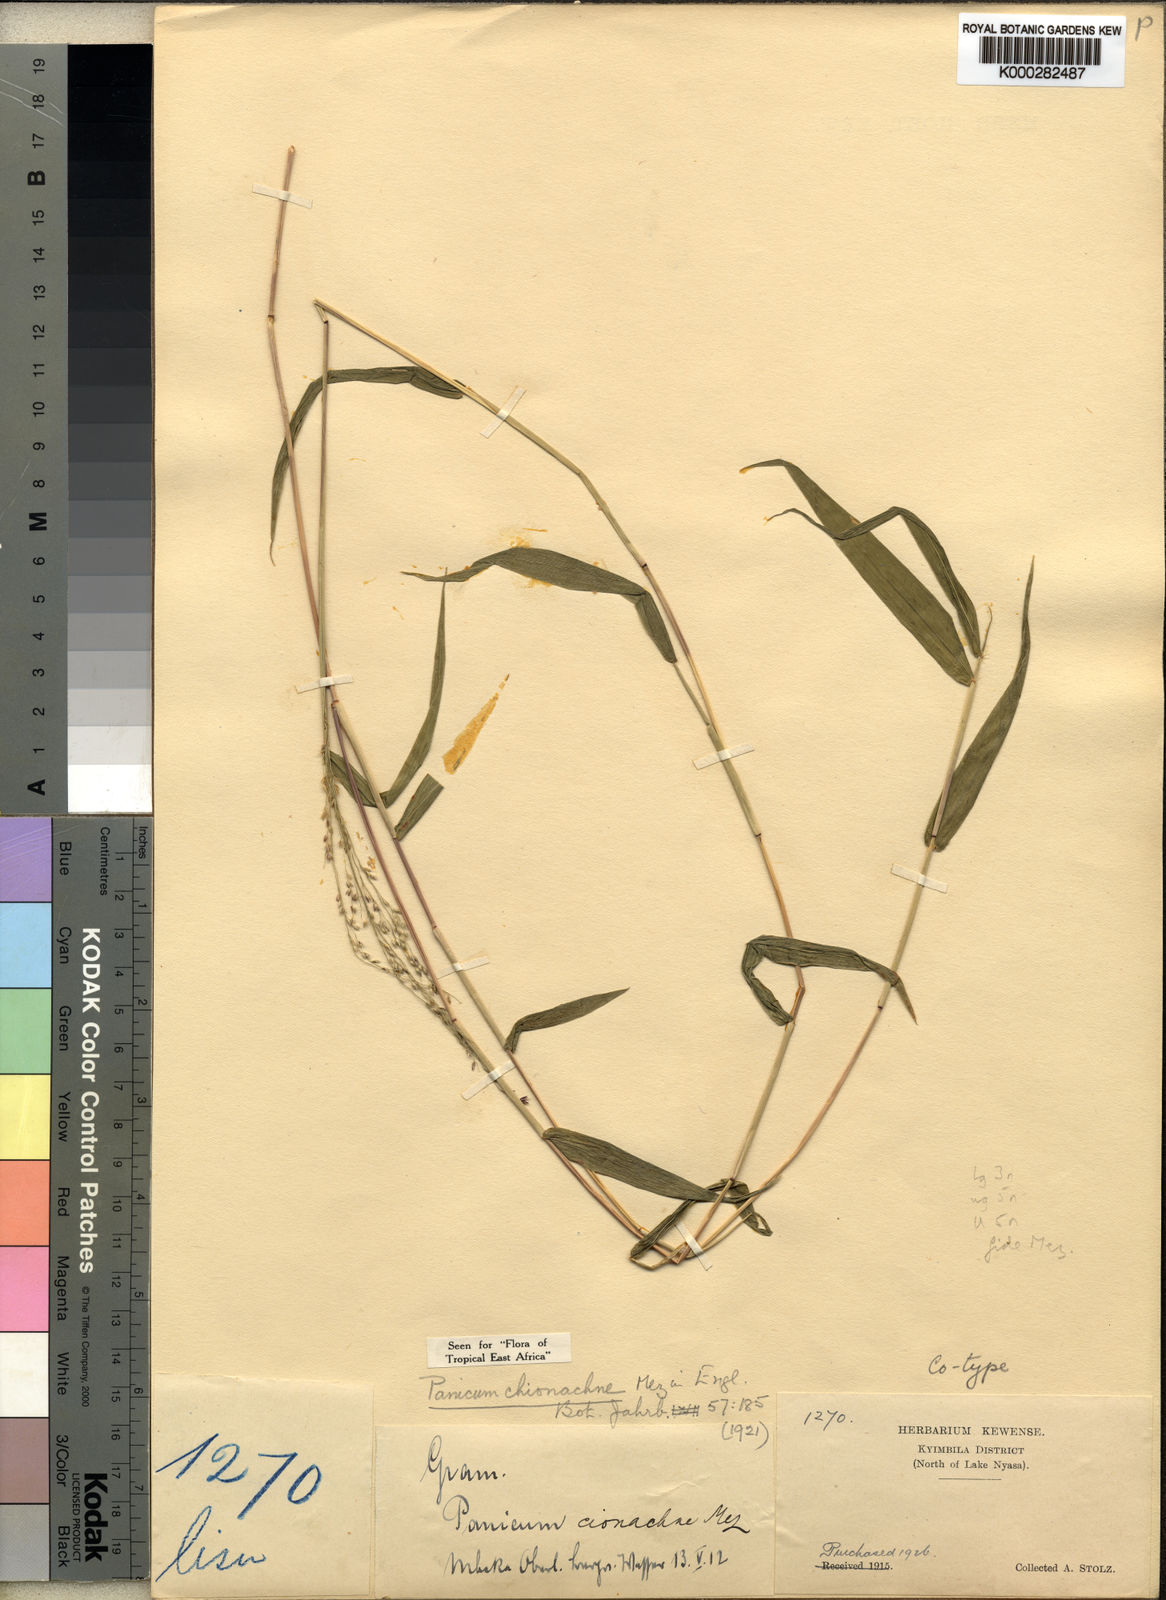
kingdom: Plantae
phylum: Tracheophyta
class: Liliopsida
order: Poales
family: Poaceae
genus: Panicum
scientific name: Panicum chionachne
